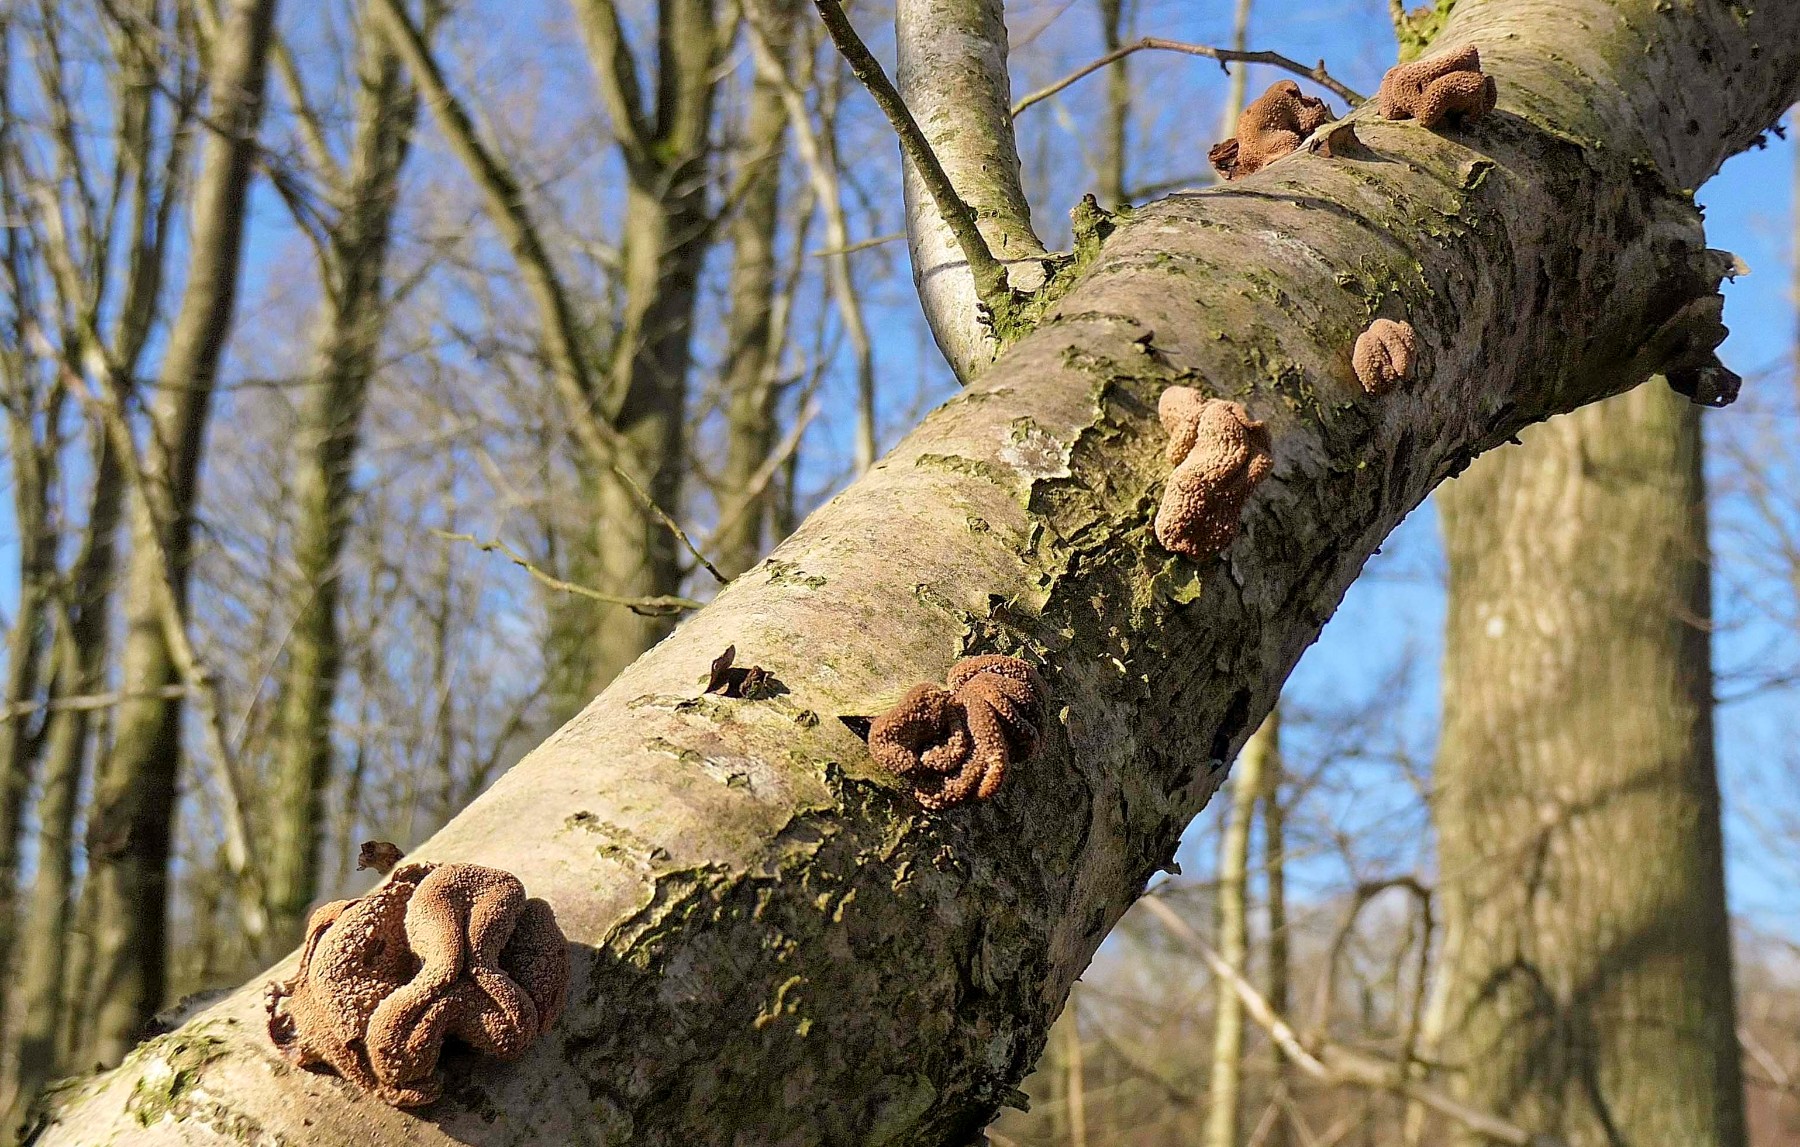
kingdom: Fungi
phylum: Ascomycota
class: Leotiomycetes
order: Helotiales
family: Cenangiaceae
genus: Encoelia
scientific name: Encoelia furfuracea
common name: hassel-læderskive
